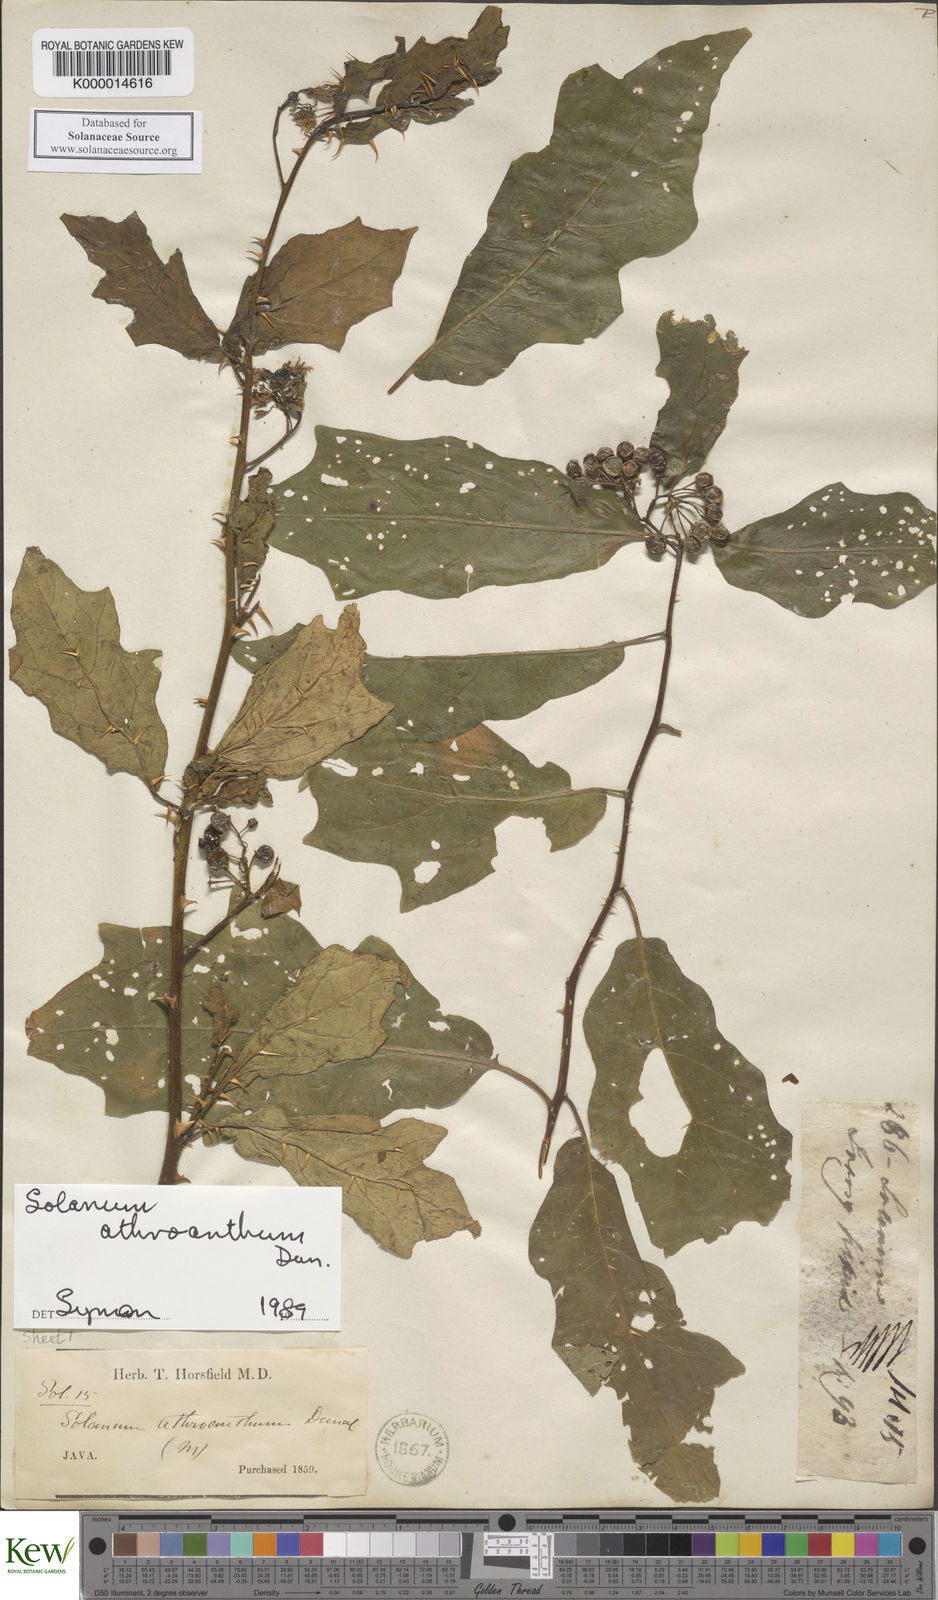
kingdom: Plantae
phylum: Tracheophyta
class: Magnoliopsida
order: Solanales
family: Solanaceae
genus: Solanum
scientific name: Solanum graciliflorum
